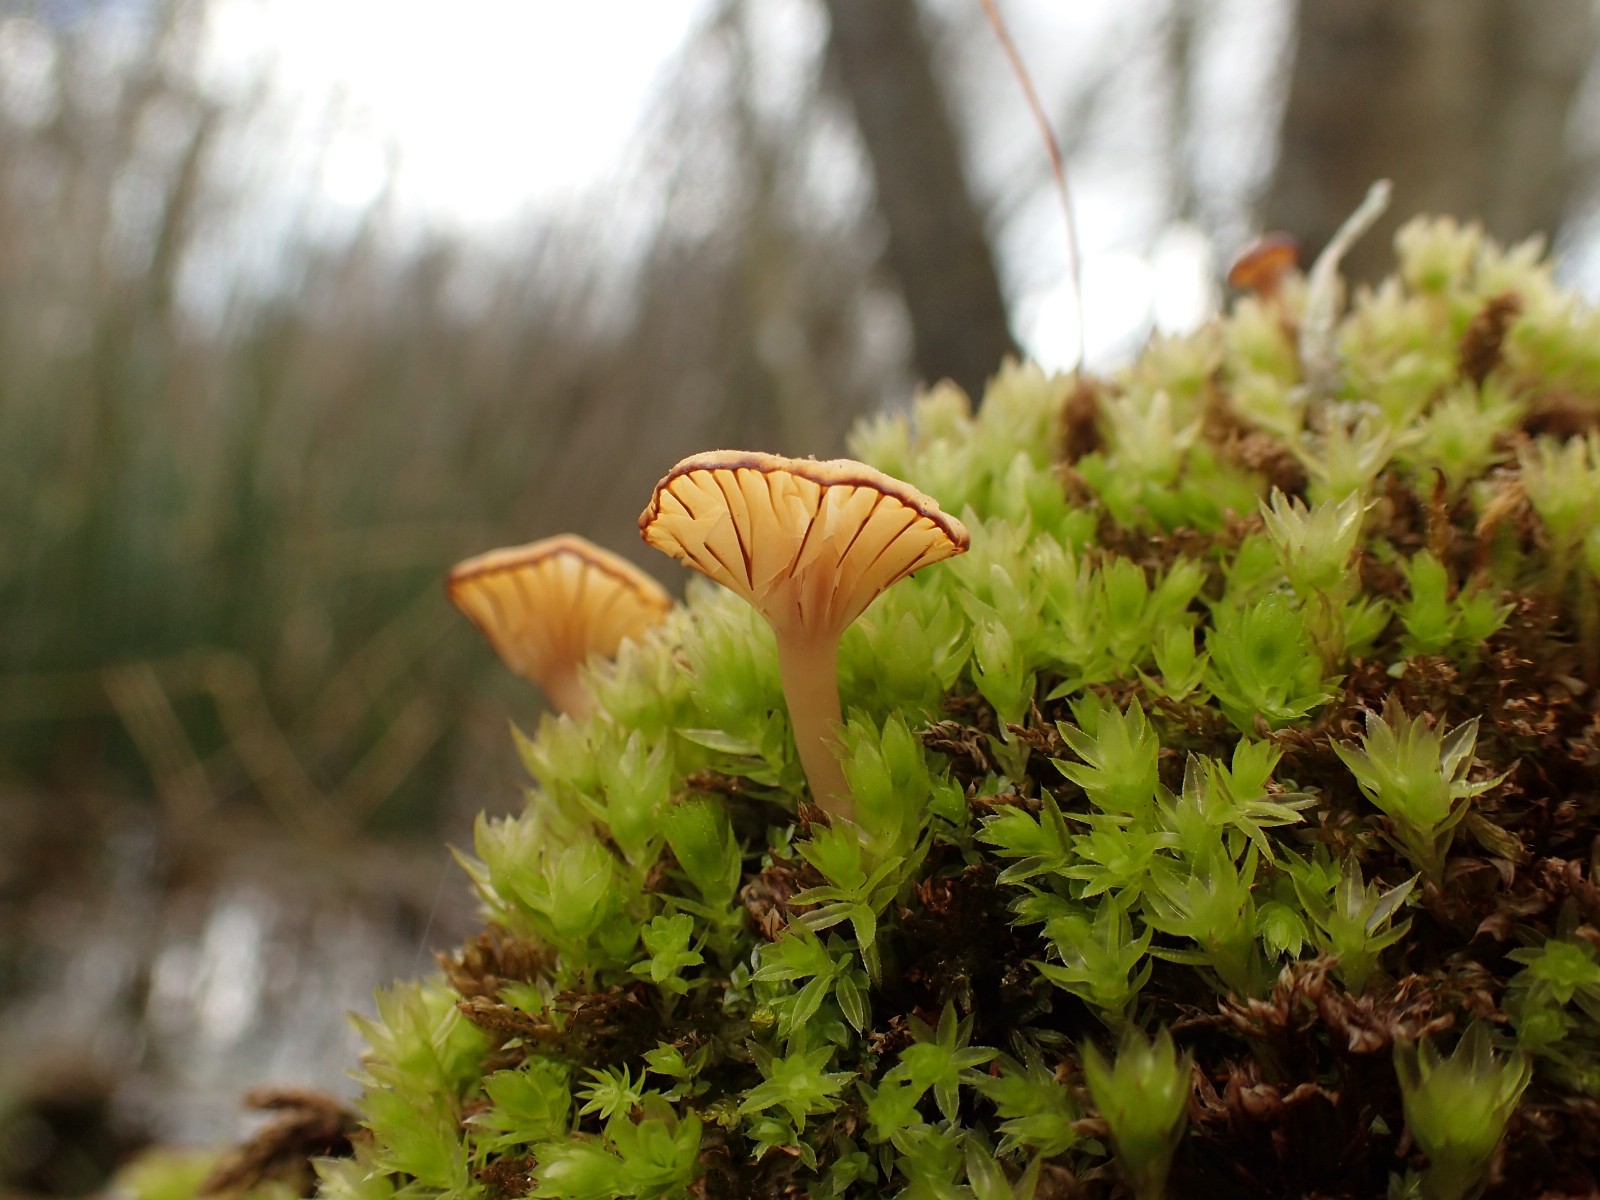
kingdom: Fungi
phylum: Basidiomycota
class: Agaricomycetes
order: Agaricales
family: Hygrophoraceae
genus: Lichenomphalia
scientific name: Lichenomphalia umbellifera
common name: tørve-lavhat
